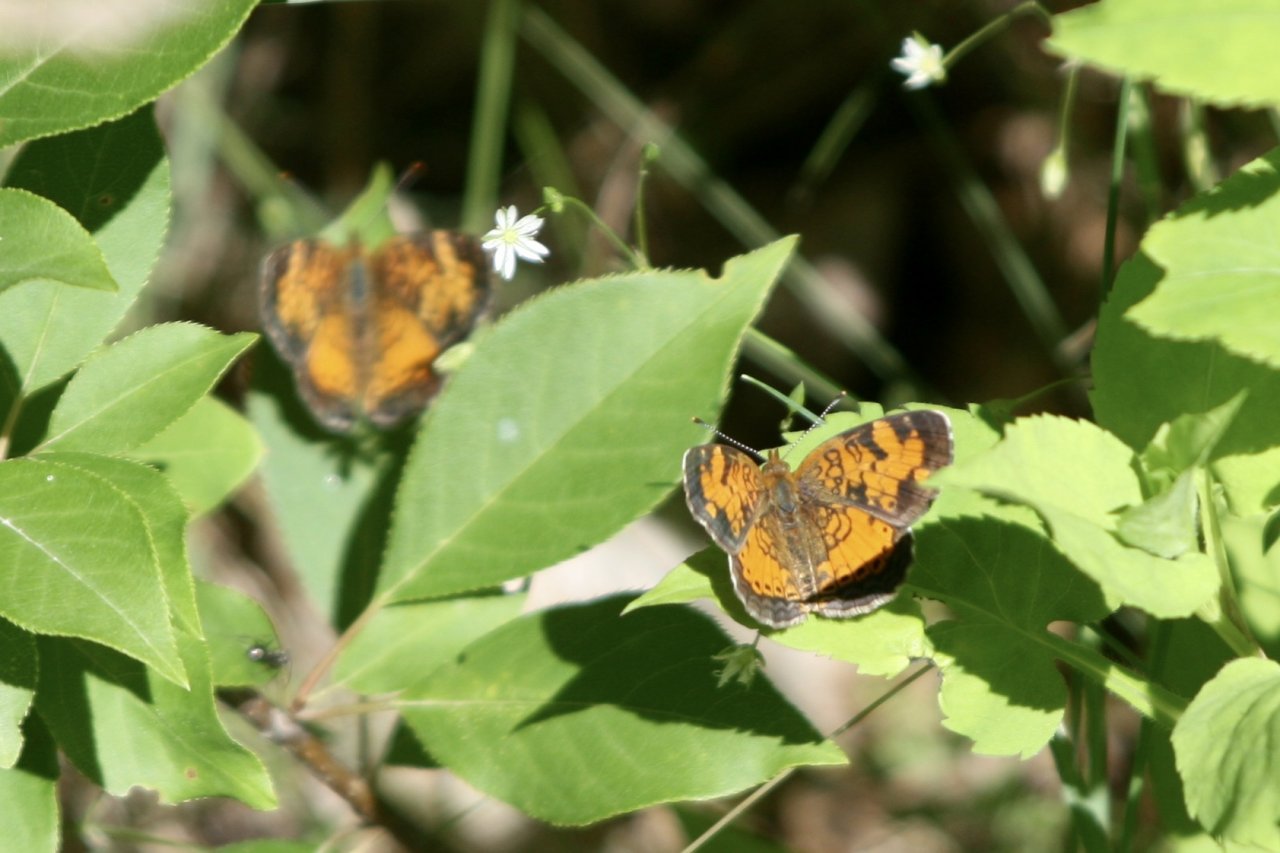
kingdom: Animalia
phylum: Arthropoda
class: Insecta
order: Lepidoptera
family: Nymphalidae
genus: Phyciodes
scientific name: Phyciodes tharos
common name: Northern Crescent
